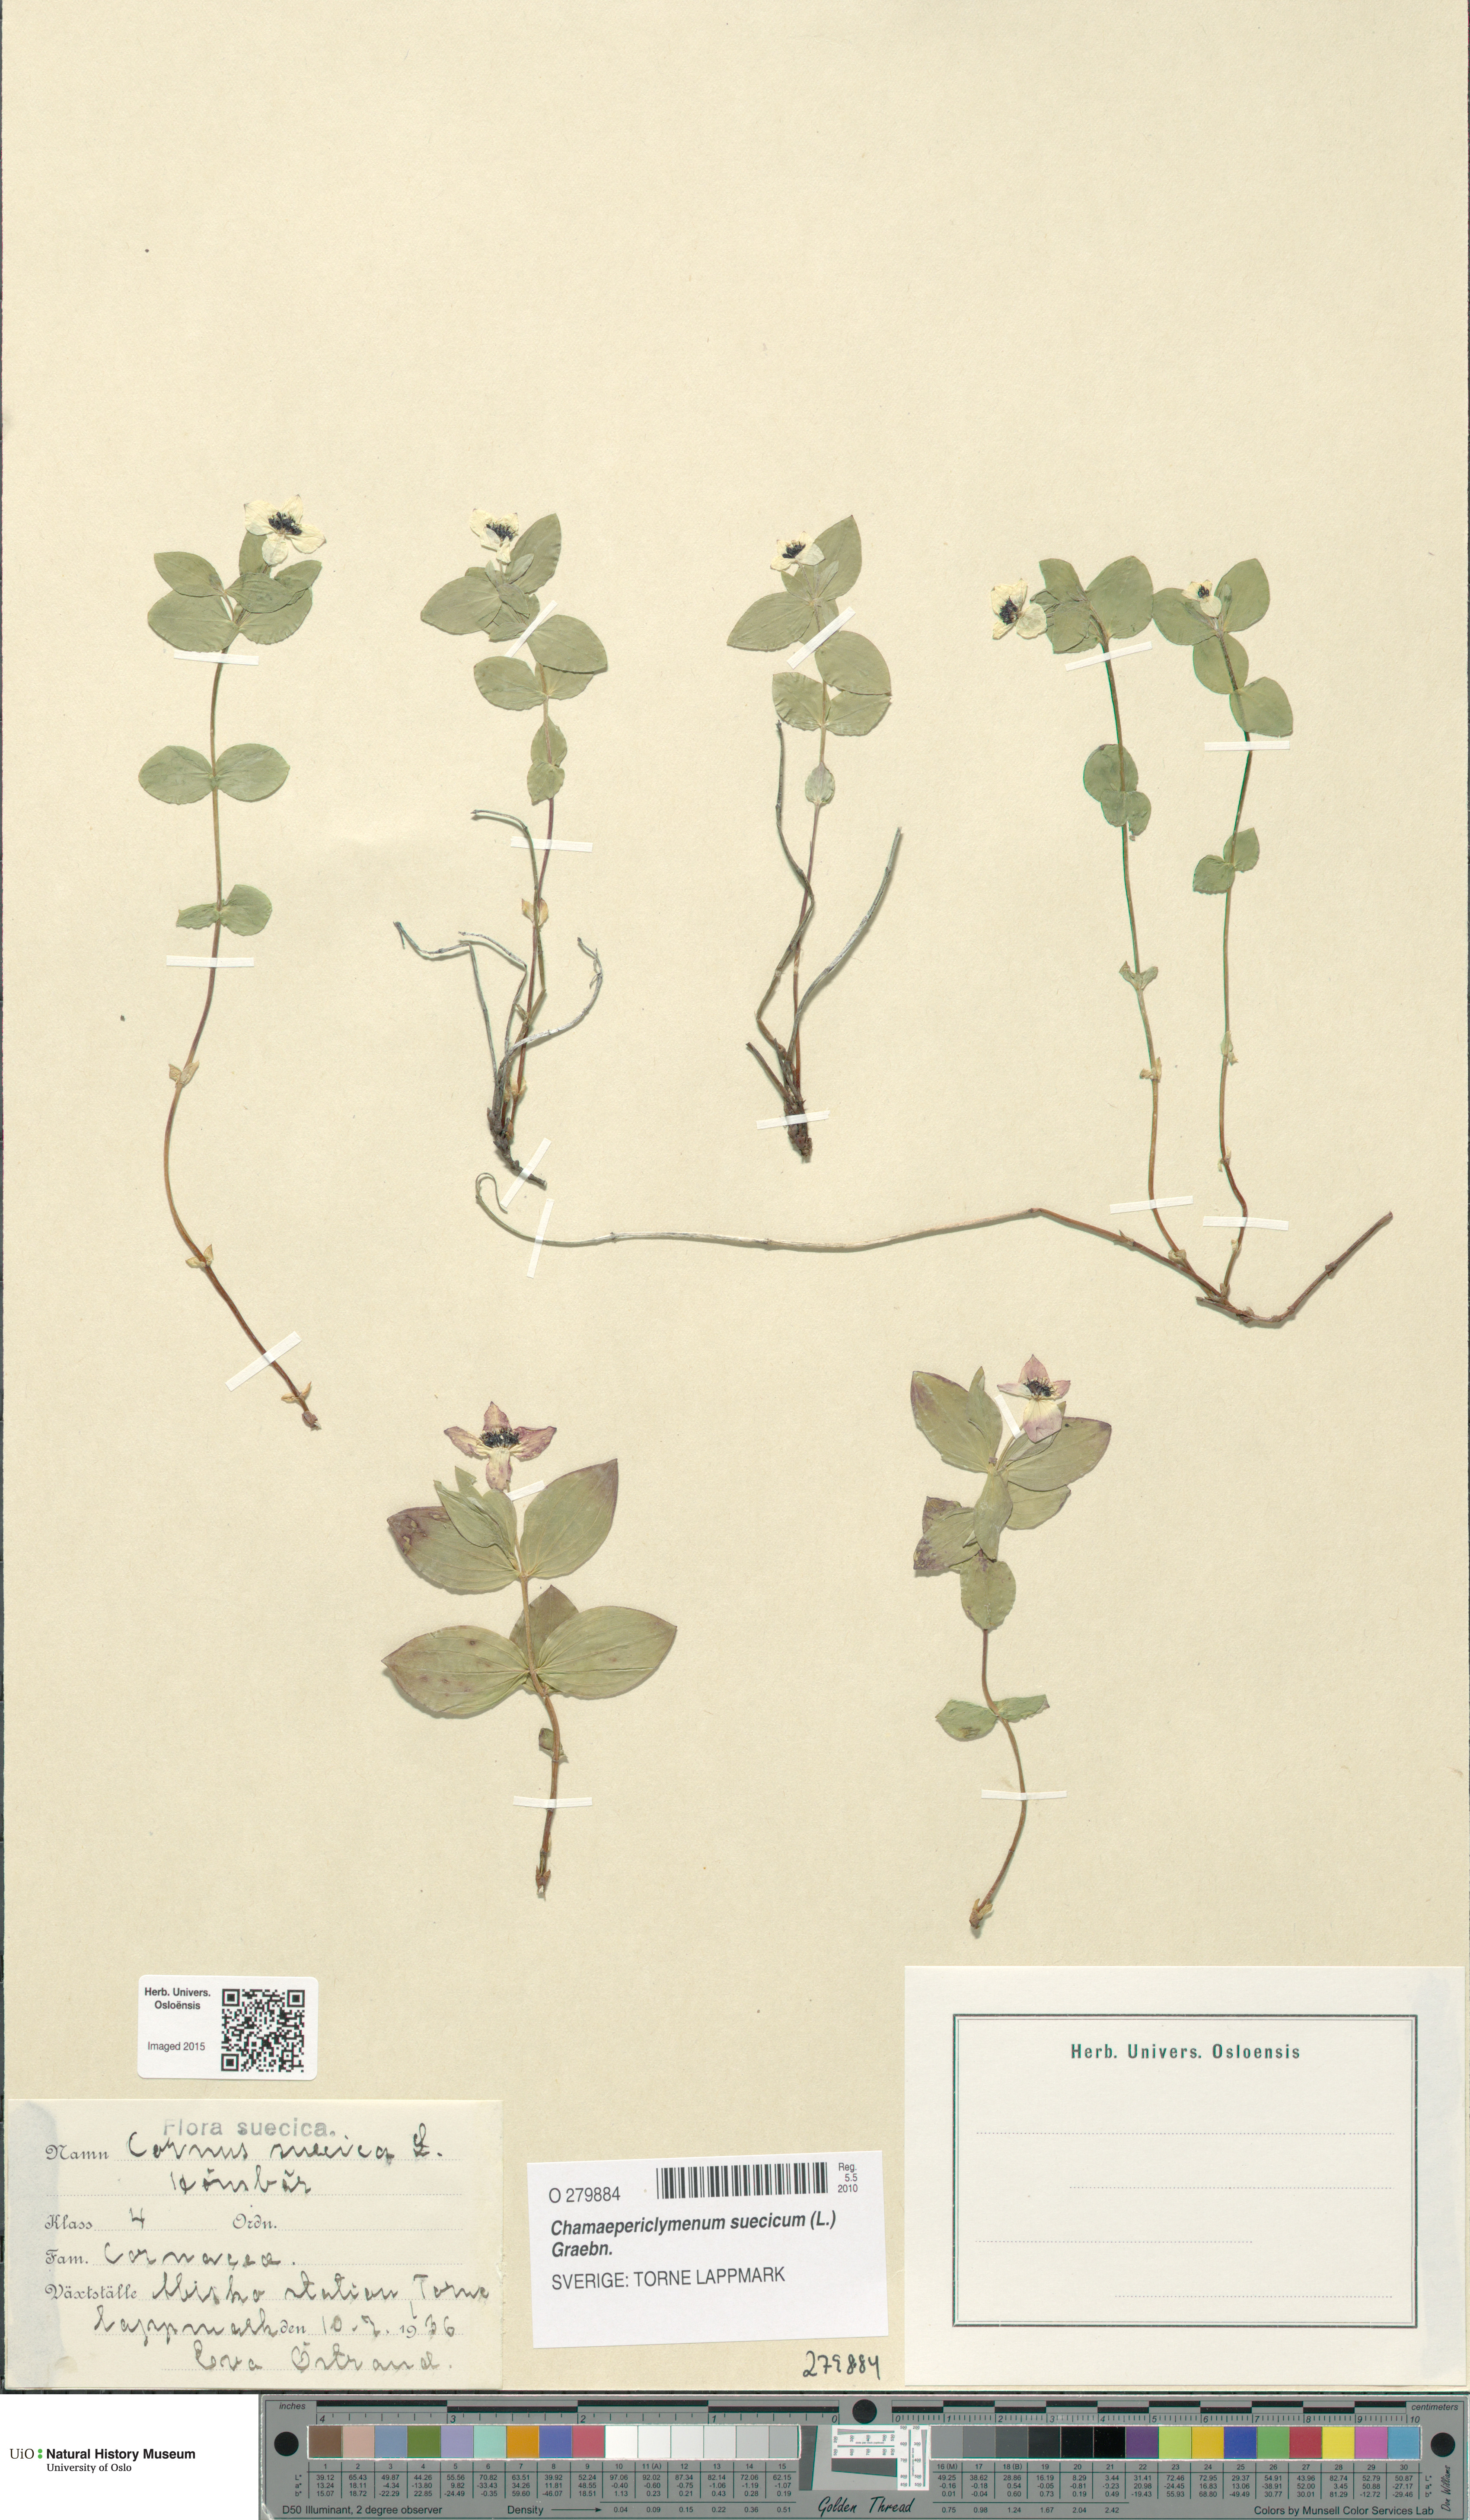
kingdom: Plantae
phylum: Tracheophyta
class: Magnoliopsida
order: Cornales
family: Cornaceae
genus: Cornus
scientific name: Cornus suecica
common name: Dwarf cornel
